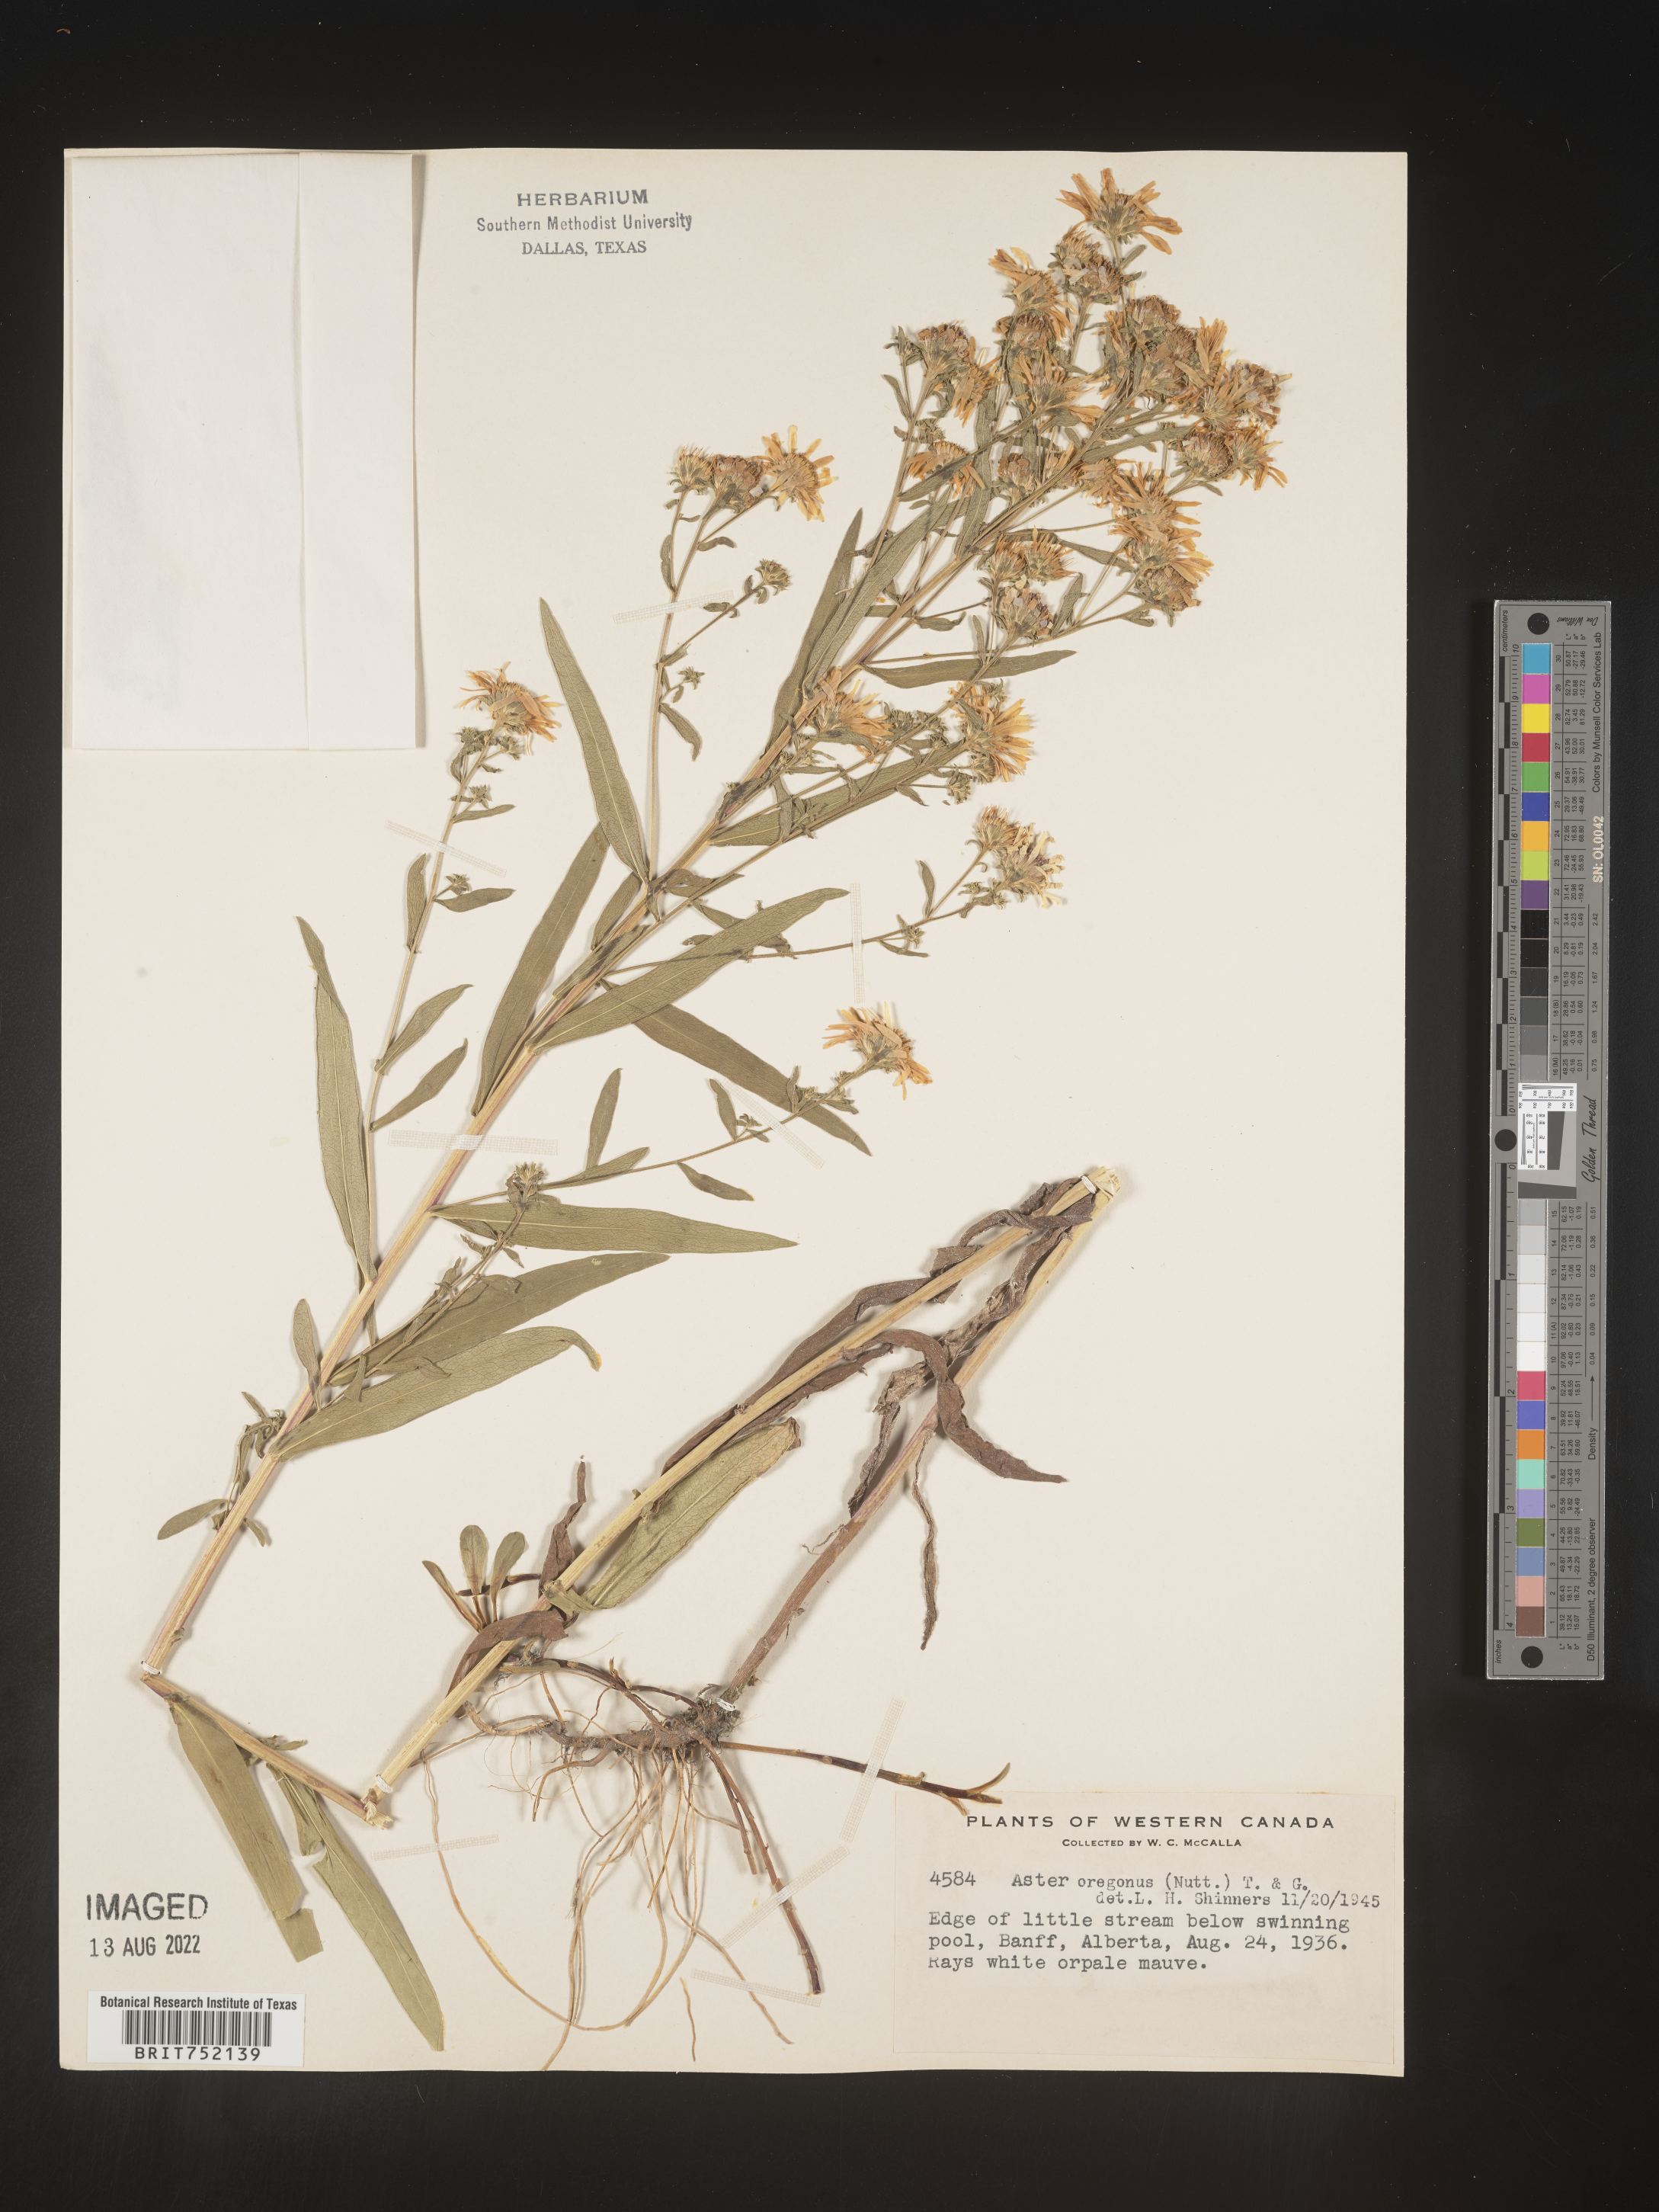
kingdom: Plantae
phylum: Tracheophyta
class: Magnoliopsida
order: Asterales
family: Asteraceae
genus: Symphyotrichum
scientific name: Symphyotrichum bracteolatum
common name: Eaton's aster
